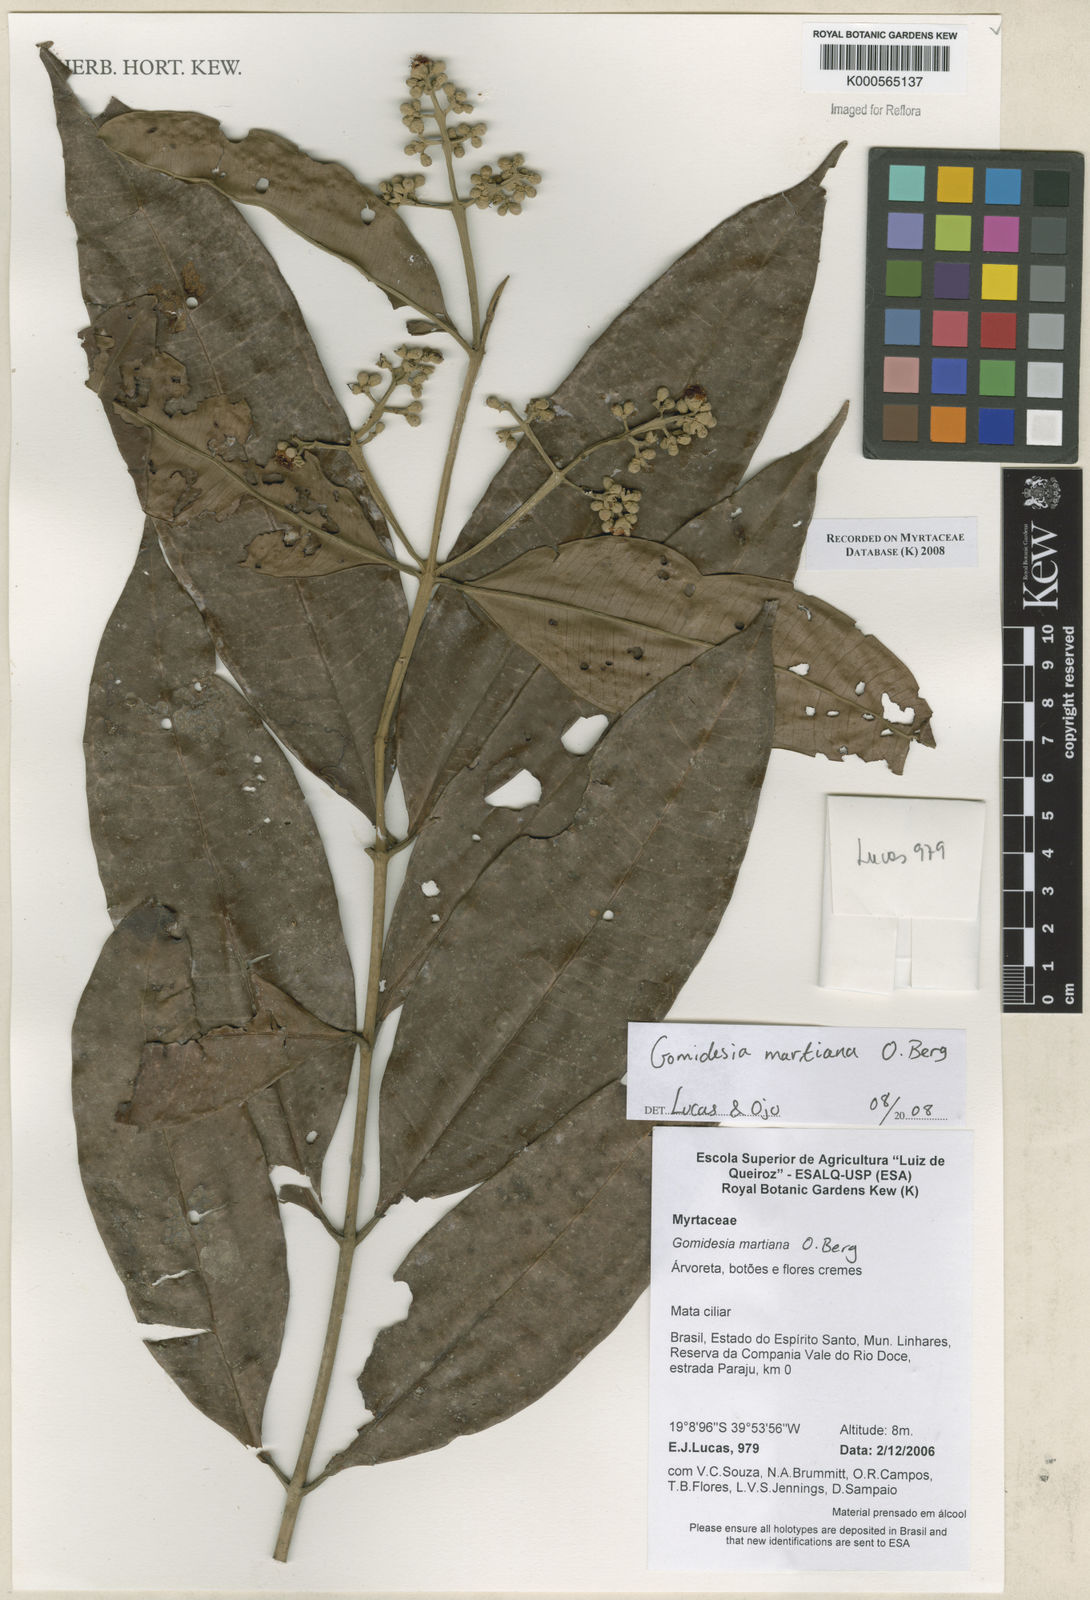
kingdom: Plantae
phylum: Tracheophyta
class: Magnoliopsida
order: Myrtales
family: Myrtaceae
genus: Myrcia
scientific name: Myrcia vittoriana
